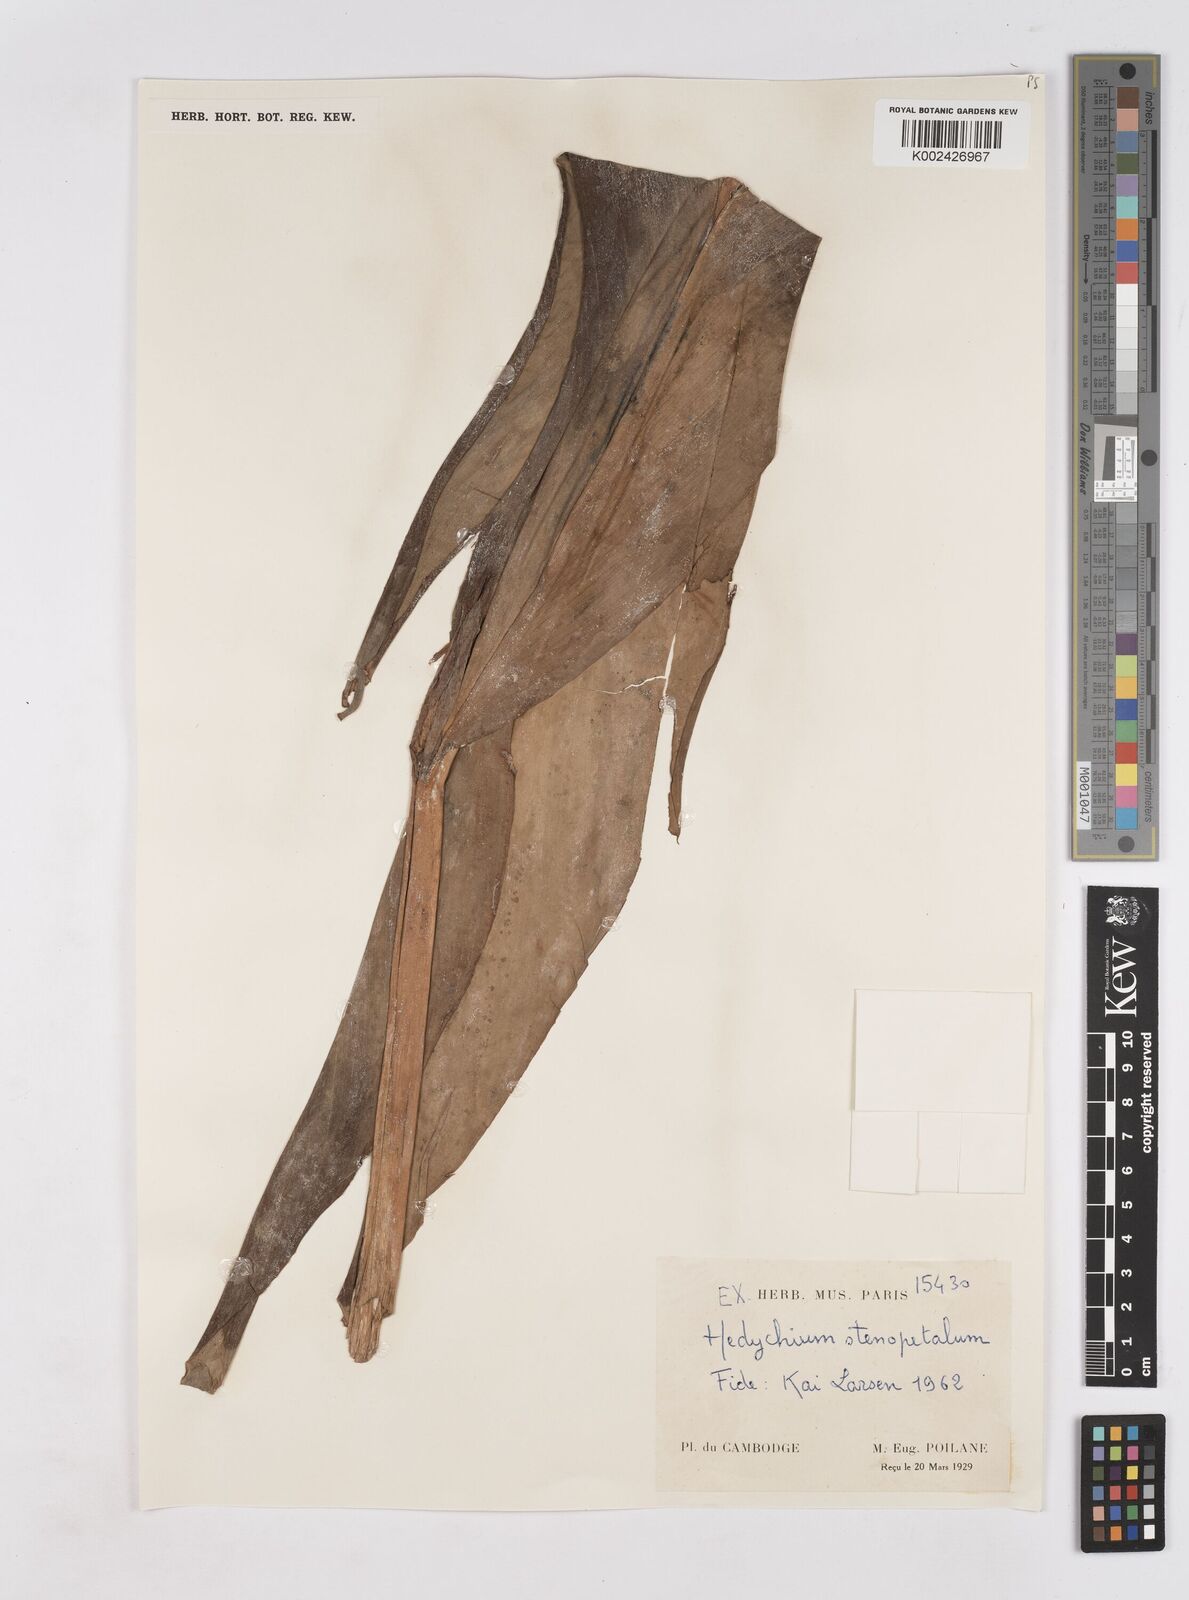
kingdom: Plantae
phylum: Tracheophyta
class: Liliopsida
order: Zingiberales
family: Zingiberaceae
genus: Hedychium
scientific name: Hedychium stenopetalum
